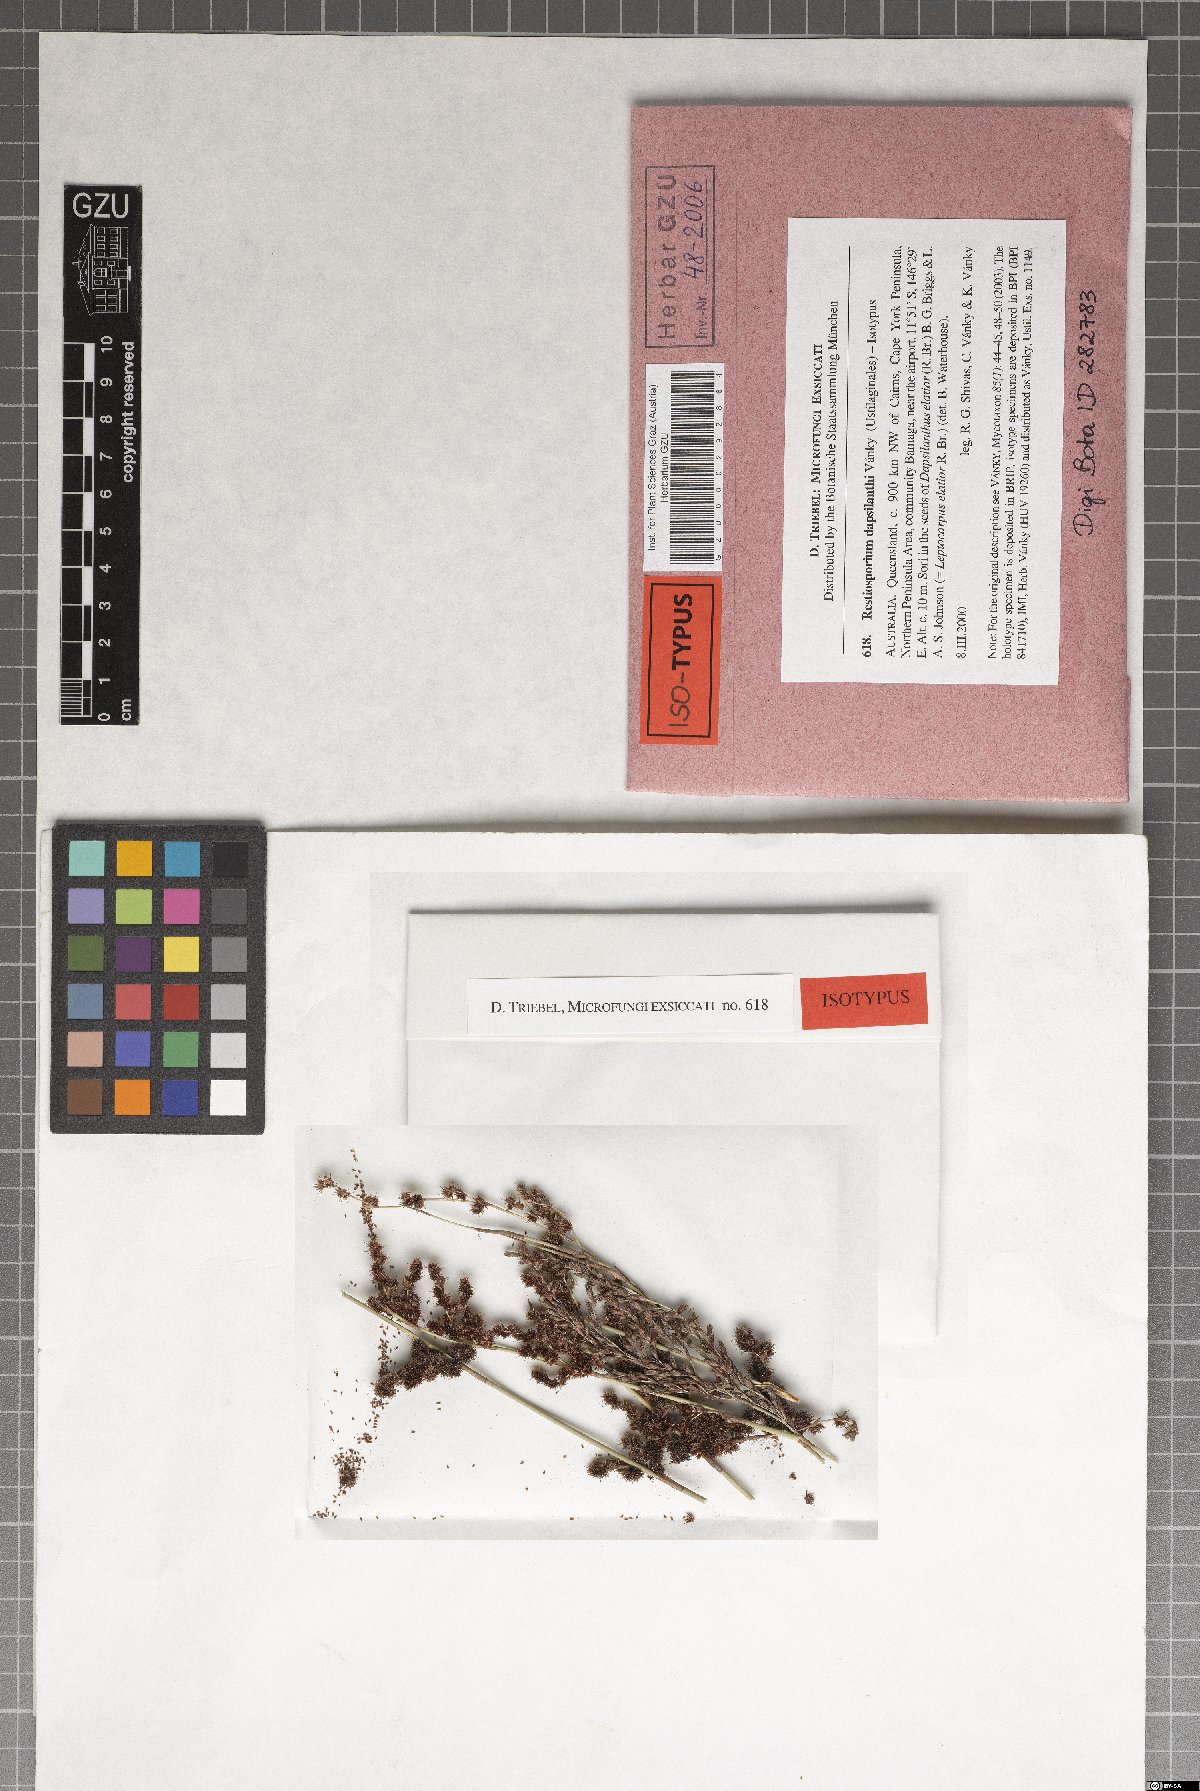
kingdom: Fungi
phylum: Basidiomycota
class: Ustilaginomycetes
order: Ustilaginales
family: Websdaneaceae
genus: Restiosporium
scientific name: Restiosporium dapsilanthi
